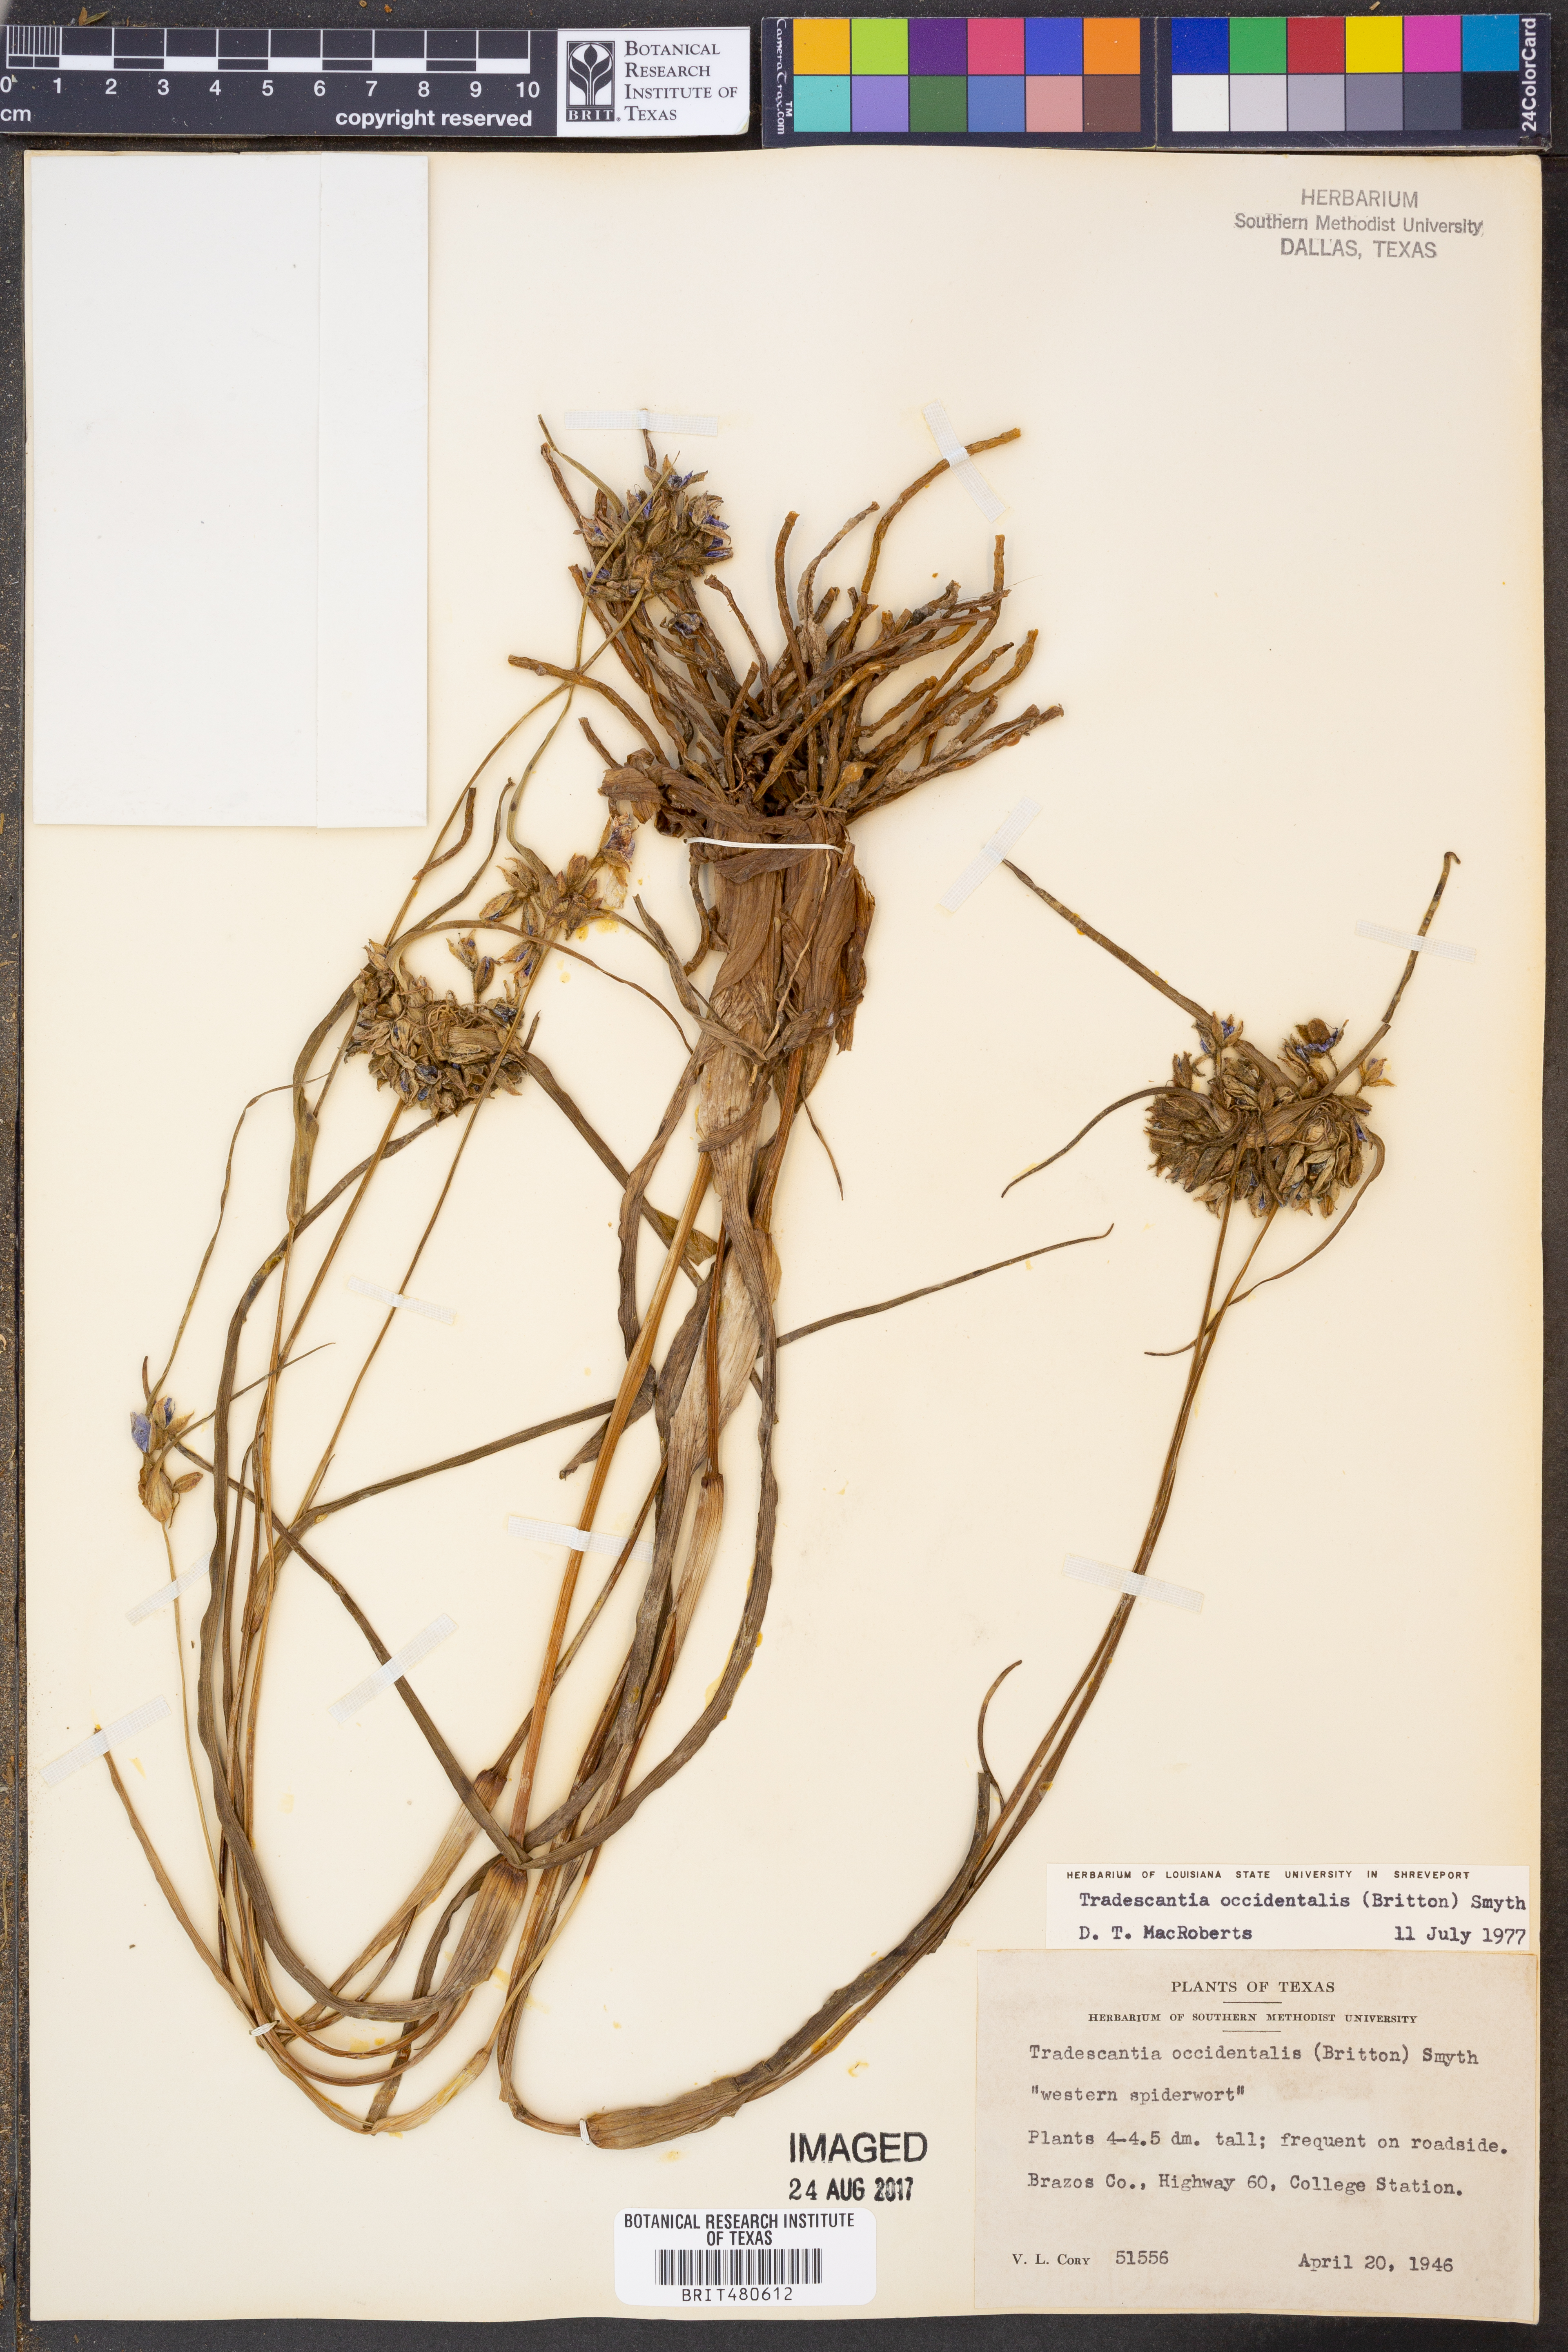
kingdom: Plantae
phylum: Tracheophyta
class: Liliopsida
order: Commelinales
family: Commelinaceae
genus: Tradescantia
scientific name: Tradescantia occidentalis
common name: Prairie spiderwort
